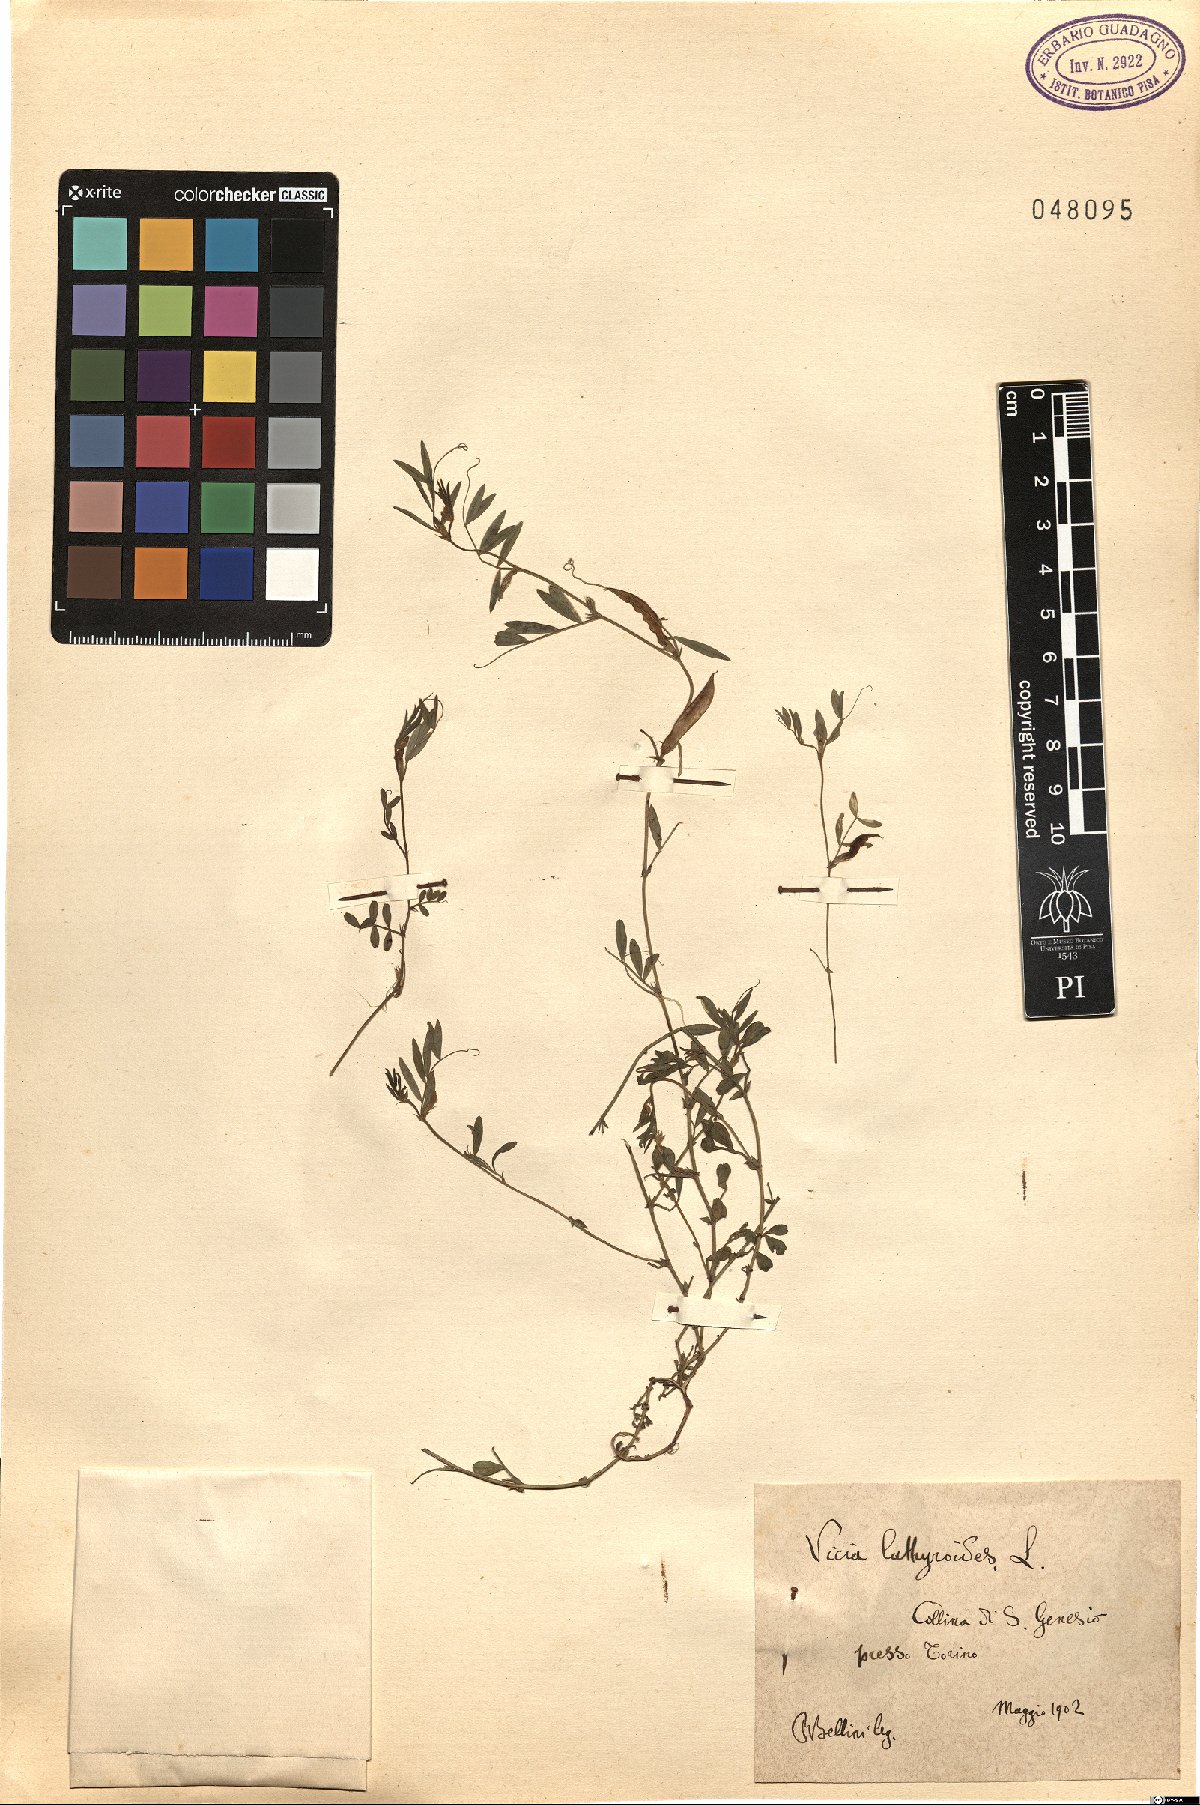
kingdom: Plantae
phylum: Tracheophyta
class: Magnoliopsida
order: Fabales
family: Fabaceae
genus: Vicia
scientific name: Vicia lathyroides
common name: Spring vetch
